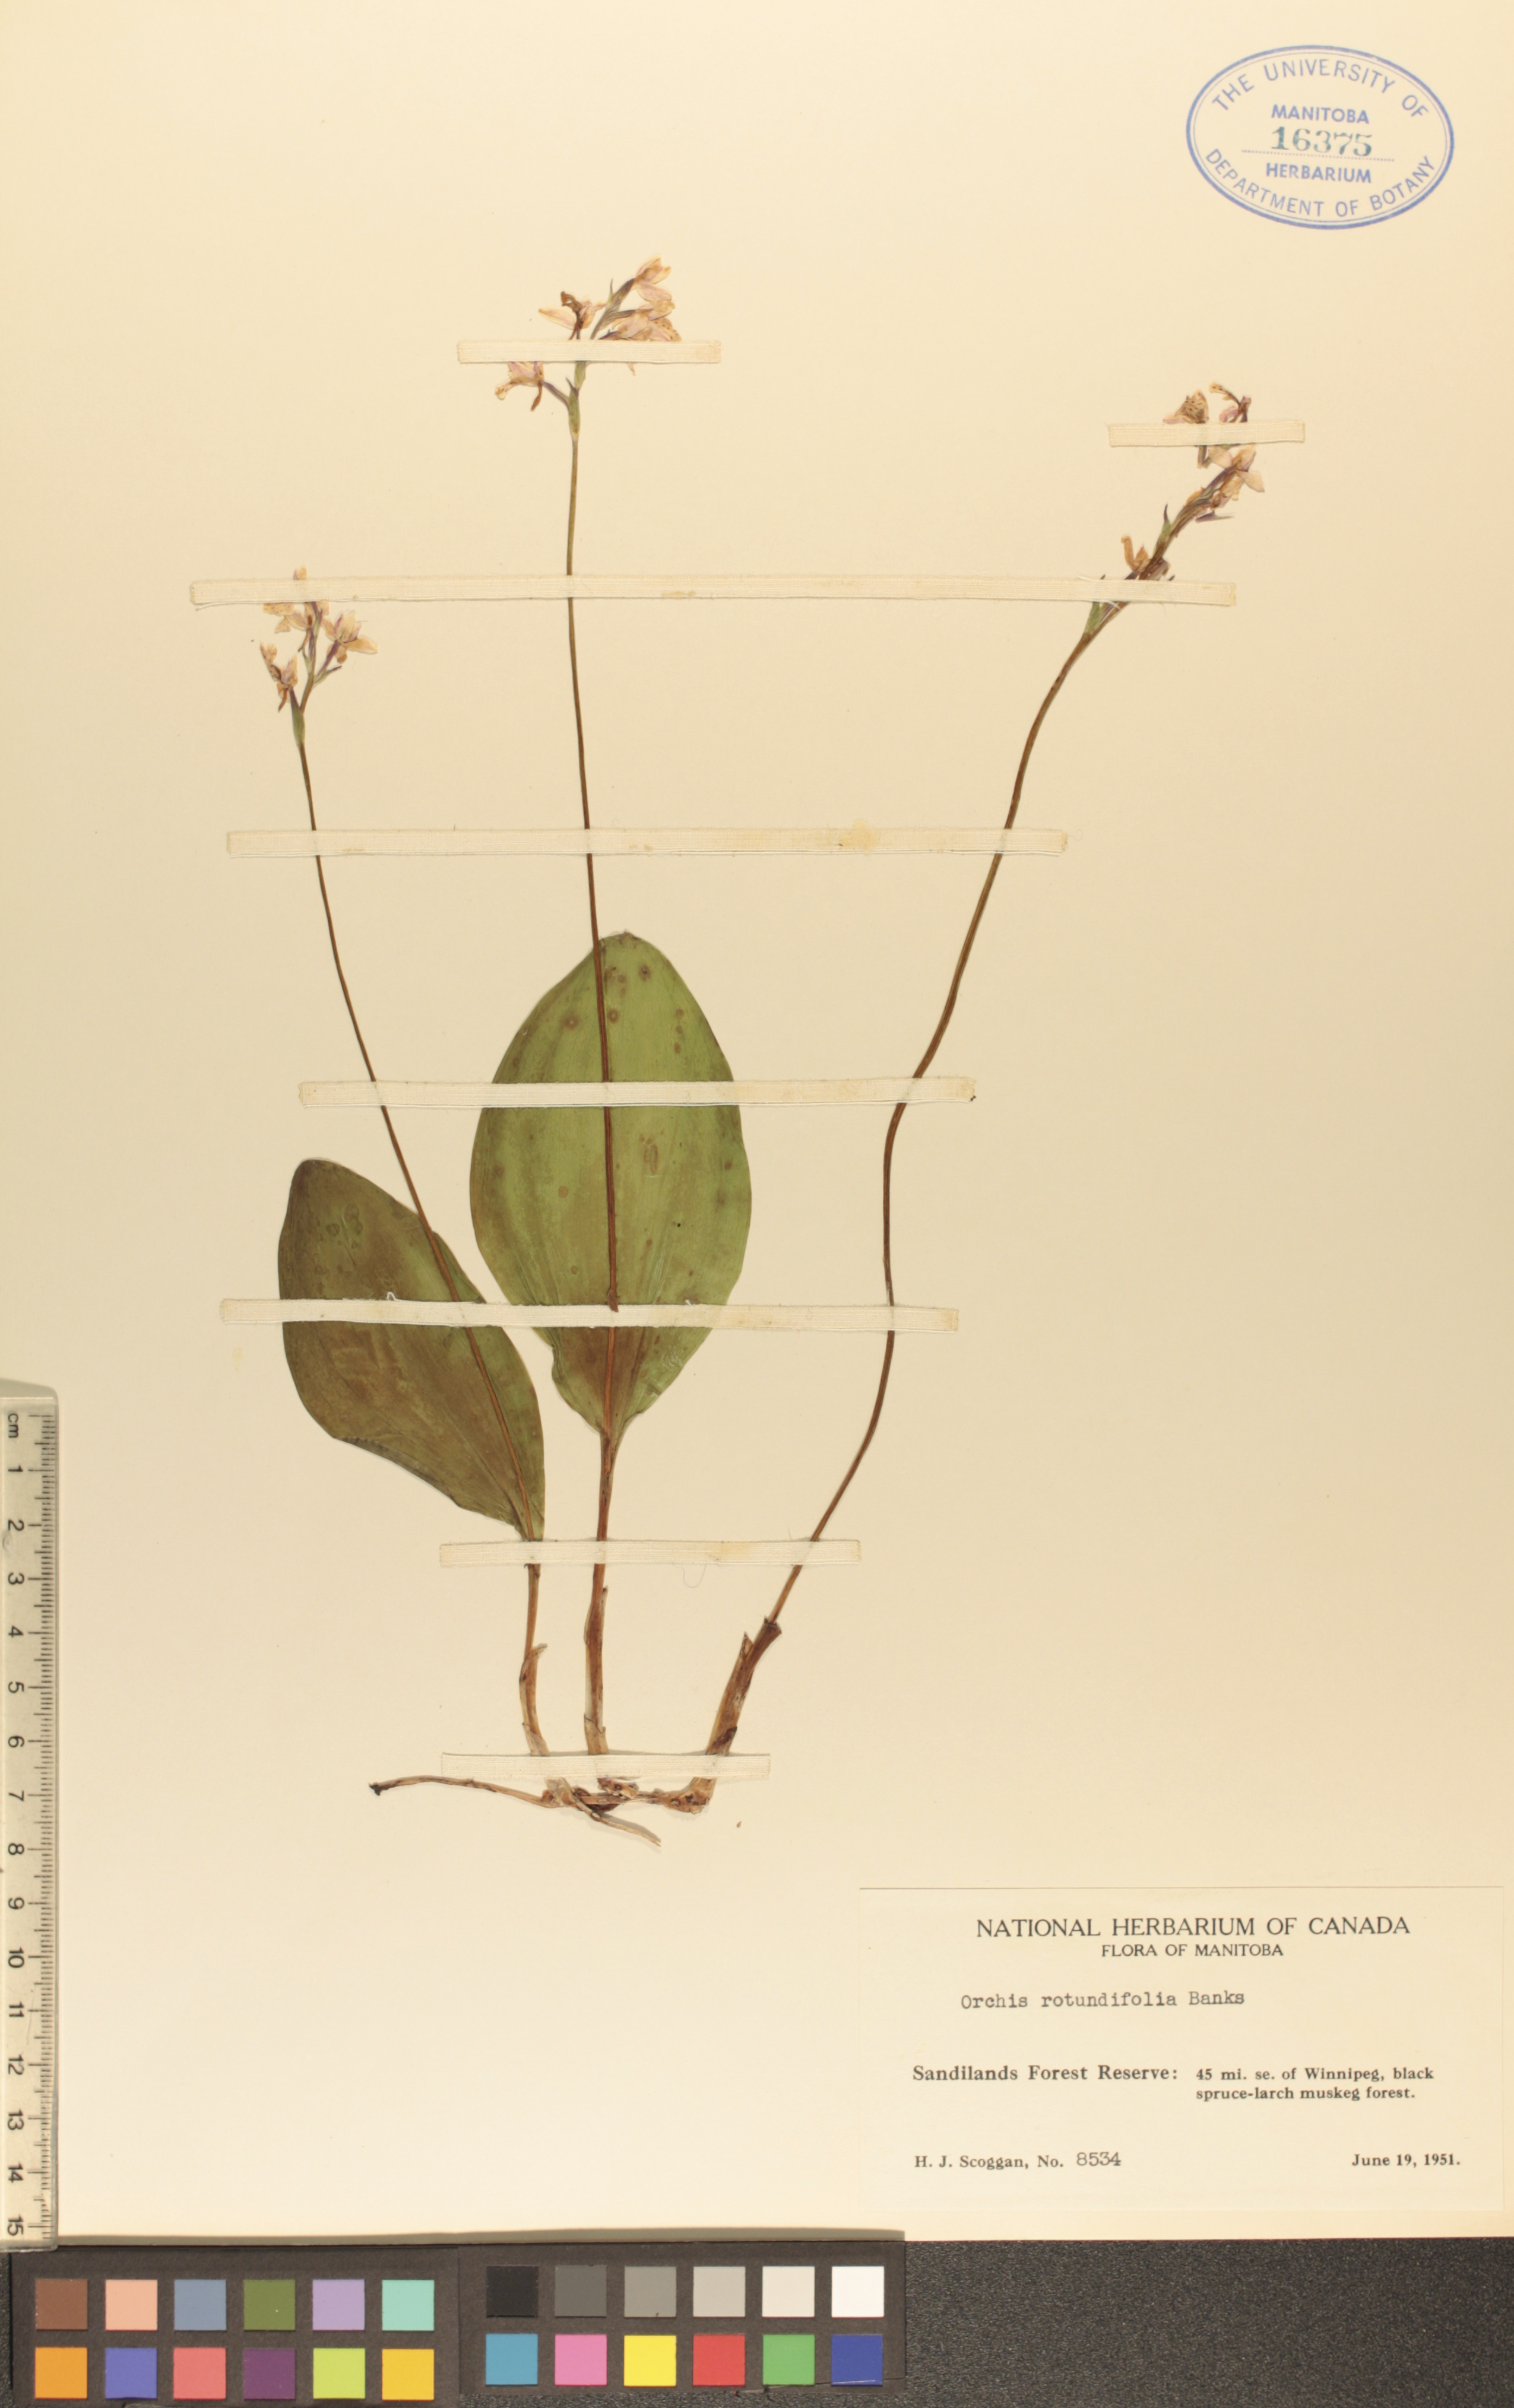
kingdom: Plantae
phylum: Tracheophyta
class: Liliopsida
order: Asparagales
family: Orchidaceae
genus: Galearis
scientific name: Galearis rotundifolia
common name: One-leaved orchis
